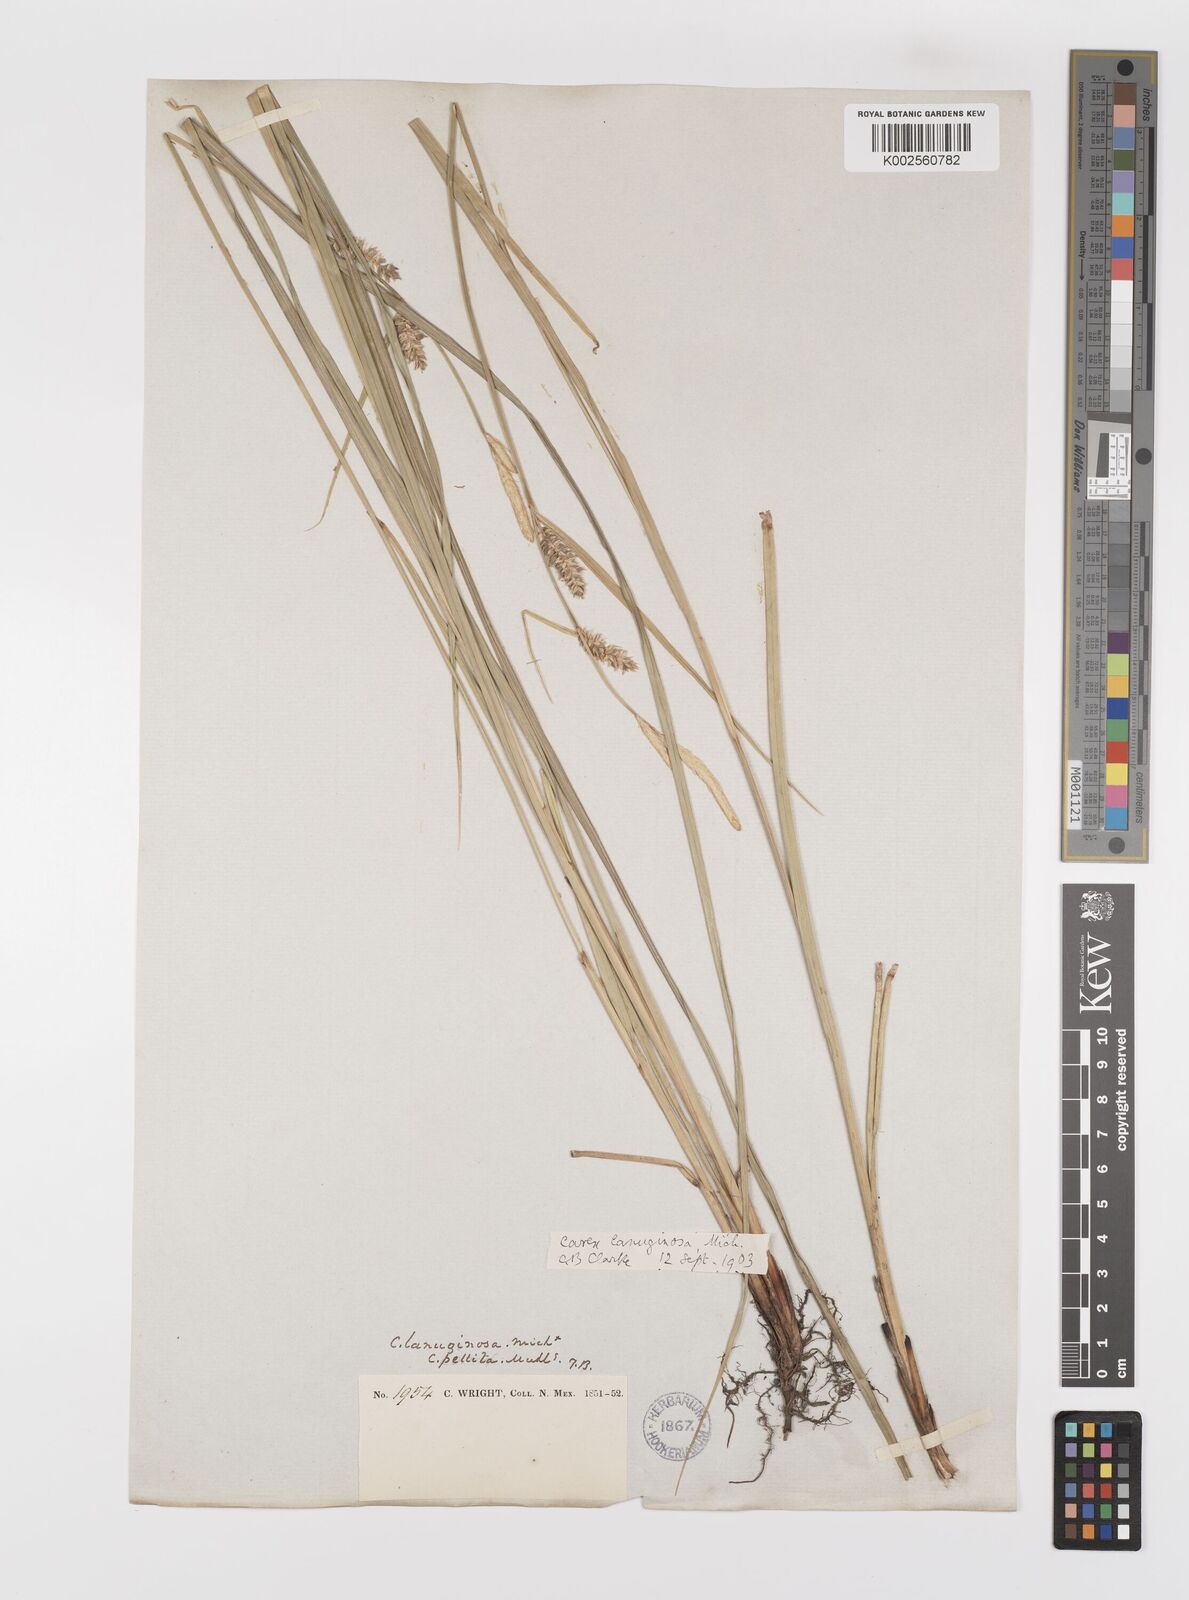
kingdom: Plantae
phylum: Tracheophyta
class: Liliopsida
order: Poales
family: Cyperaceae
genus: Carex
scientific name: Carex lasiocarpa
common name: Slender sedge
